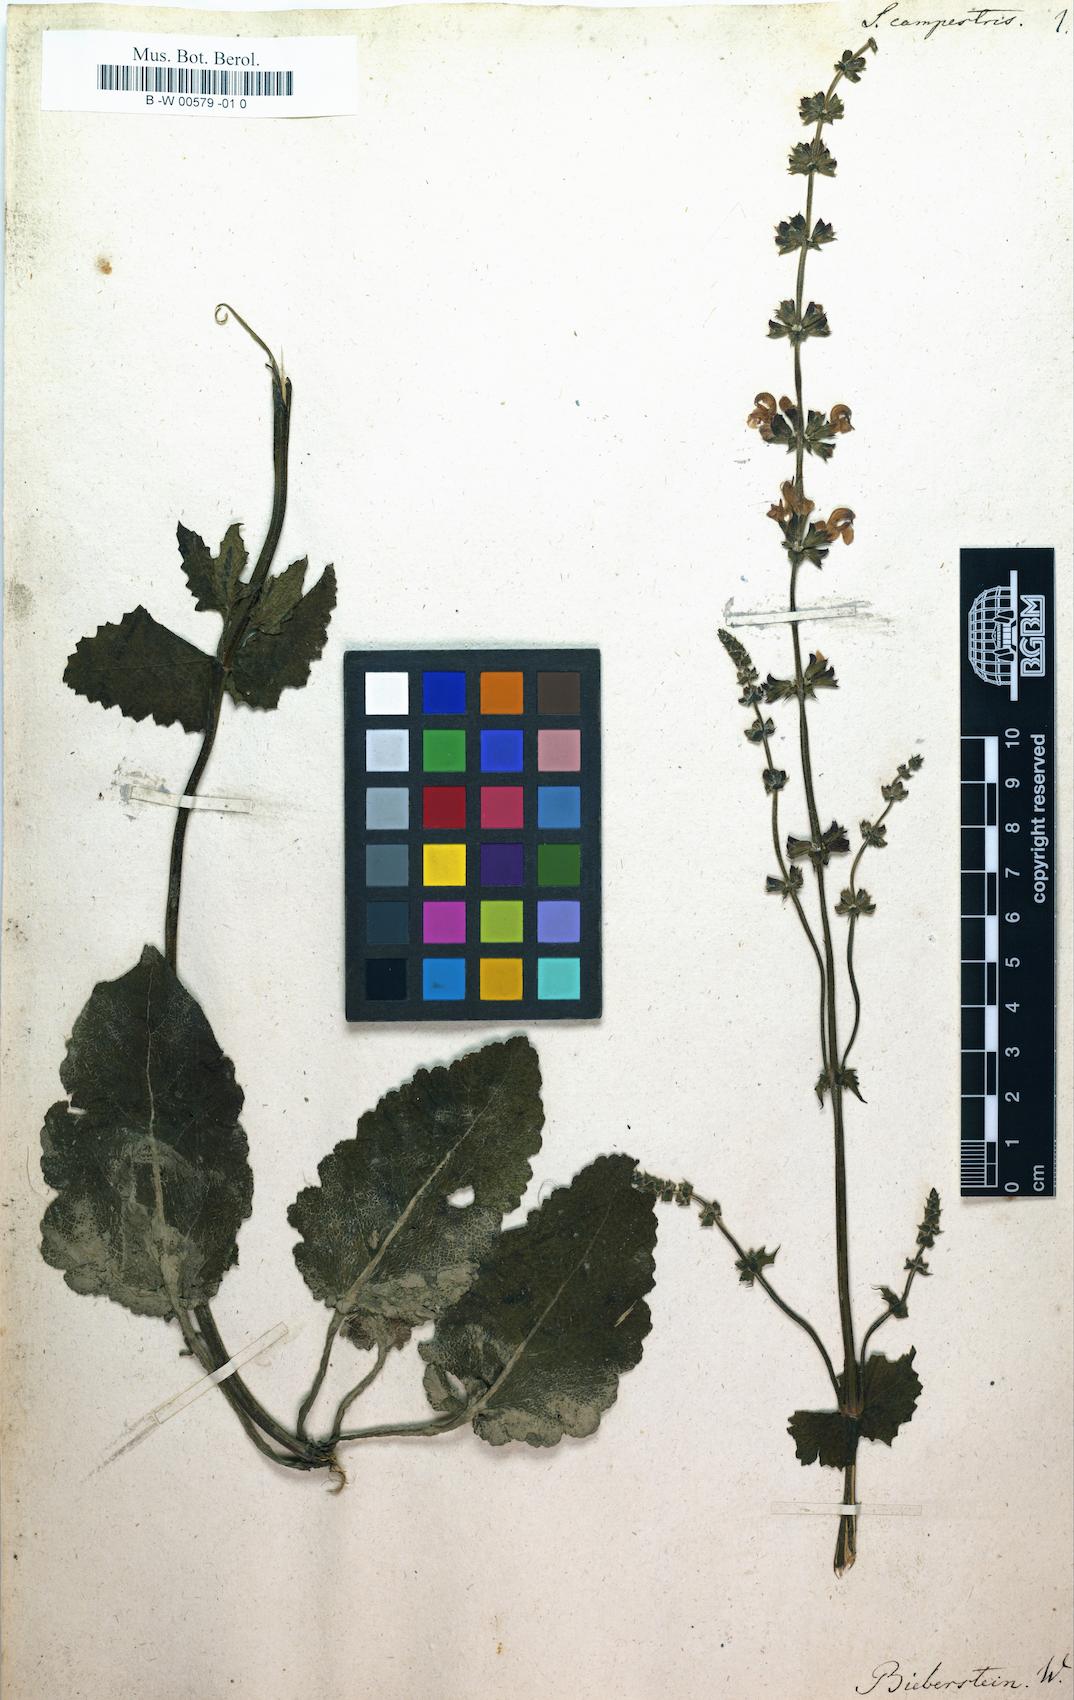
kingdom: Plantae
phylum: Tracheophyta
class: Magnoliopsida
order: Lamiales
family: Lamiaceae
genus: Salvia
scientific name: Salvia virgata
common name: Wand sage
